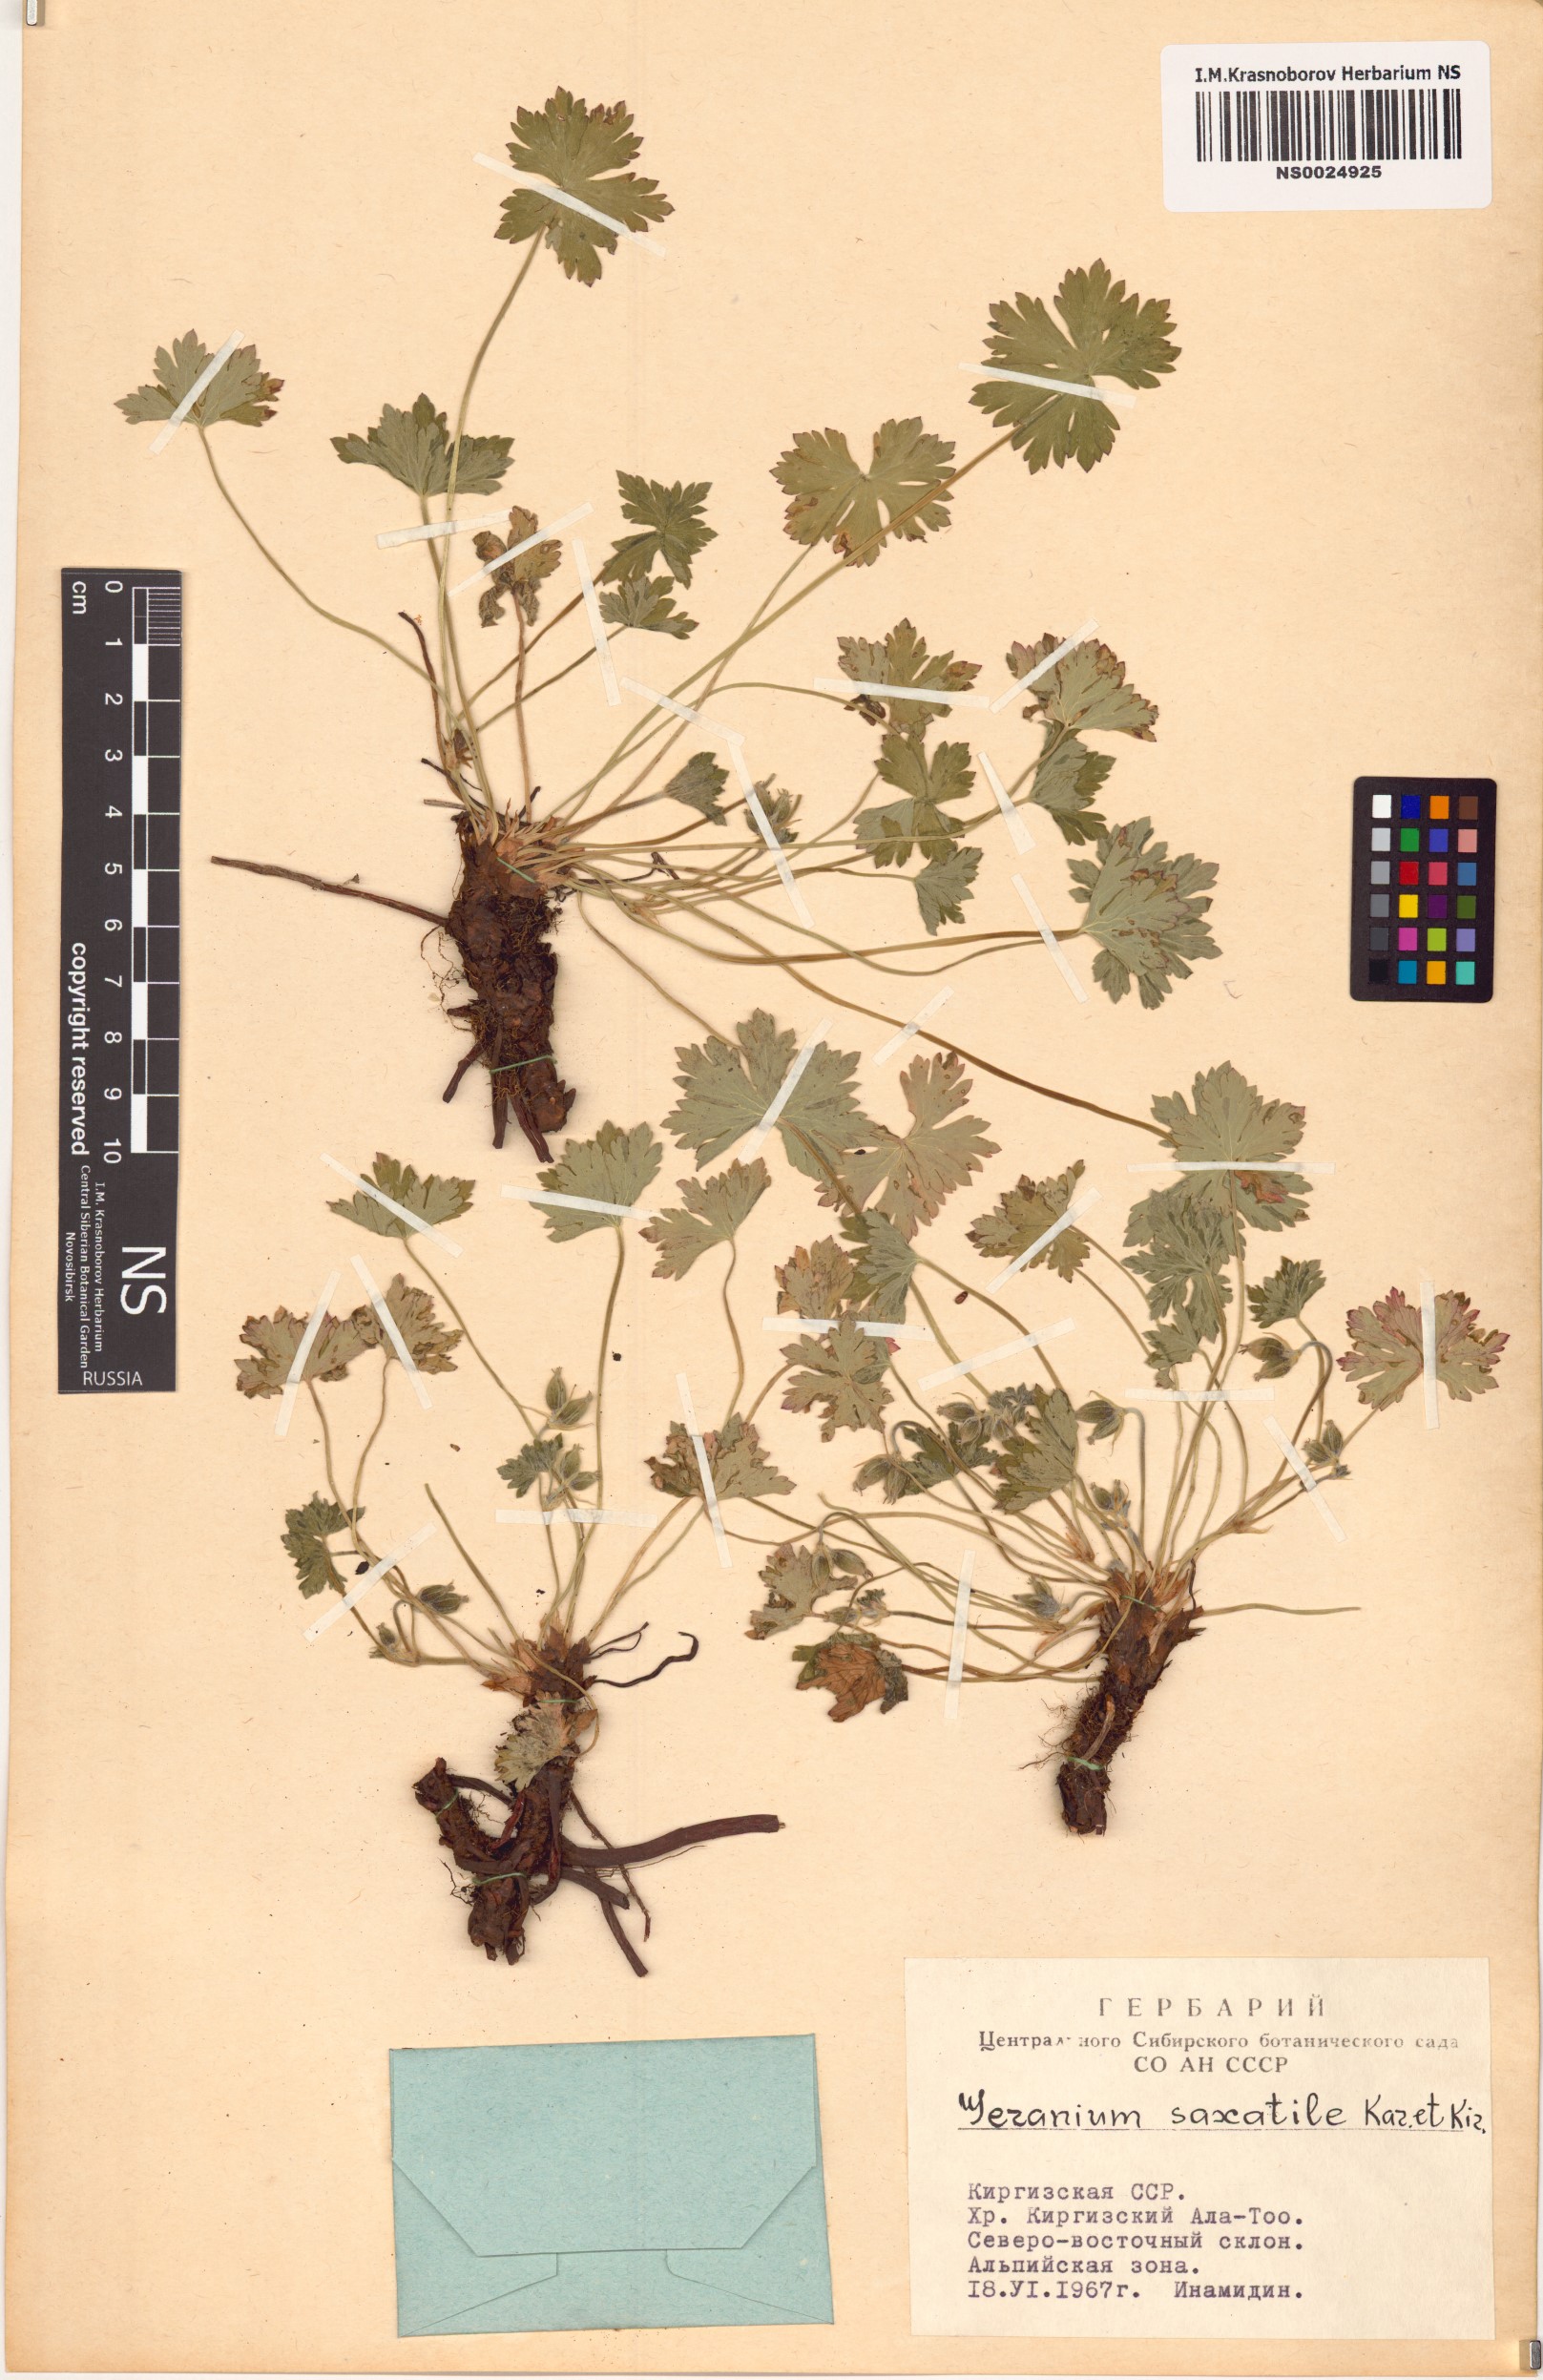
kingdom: Plantae
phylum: Tracheophyta
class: Magnoliopsida
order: Geraniales
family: Geraniaceae
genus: Geranium
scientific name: Geranium saxatile
